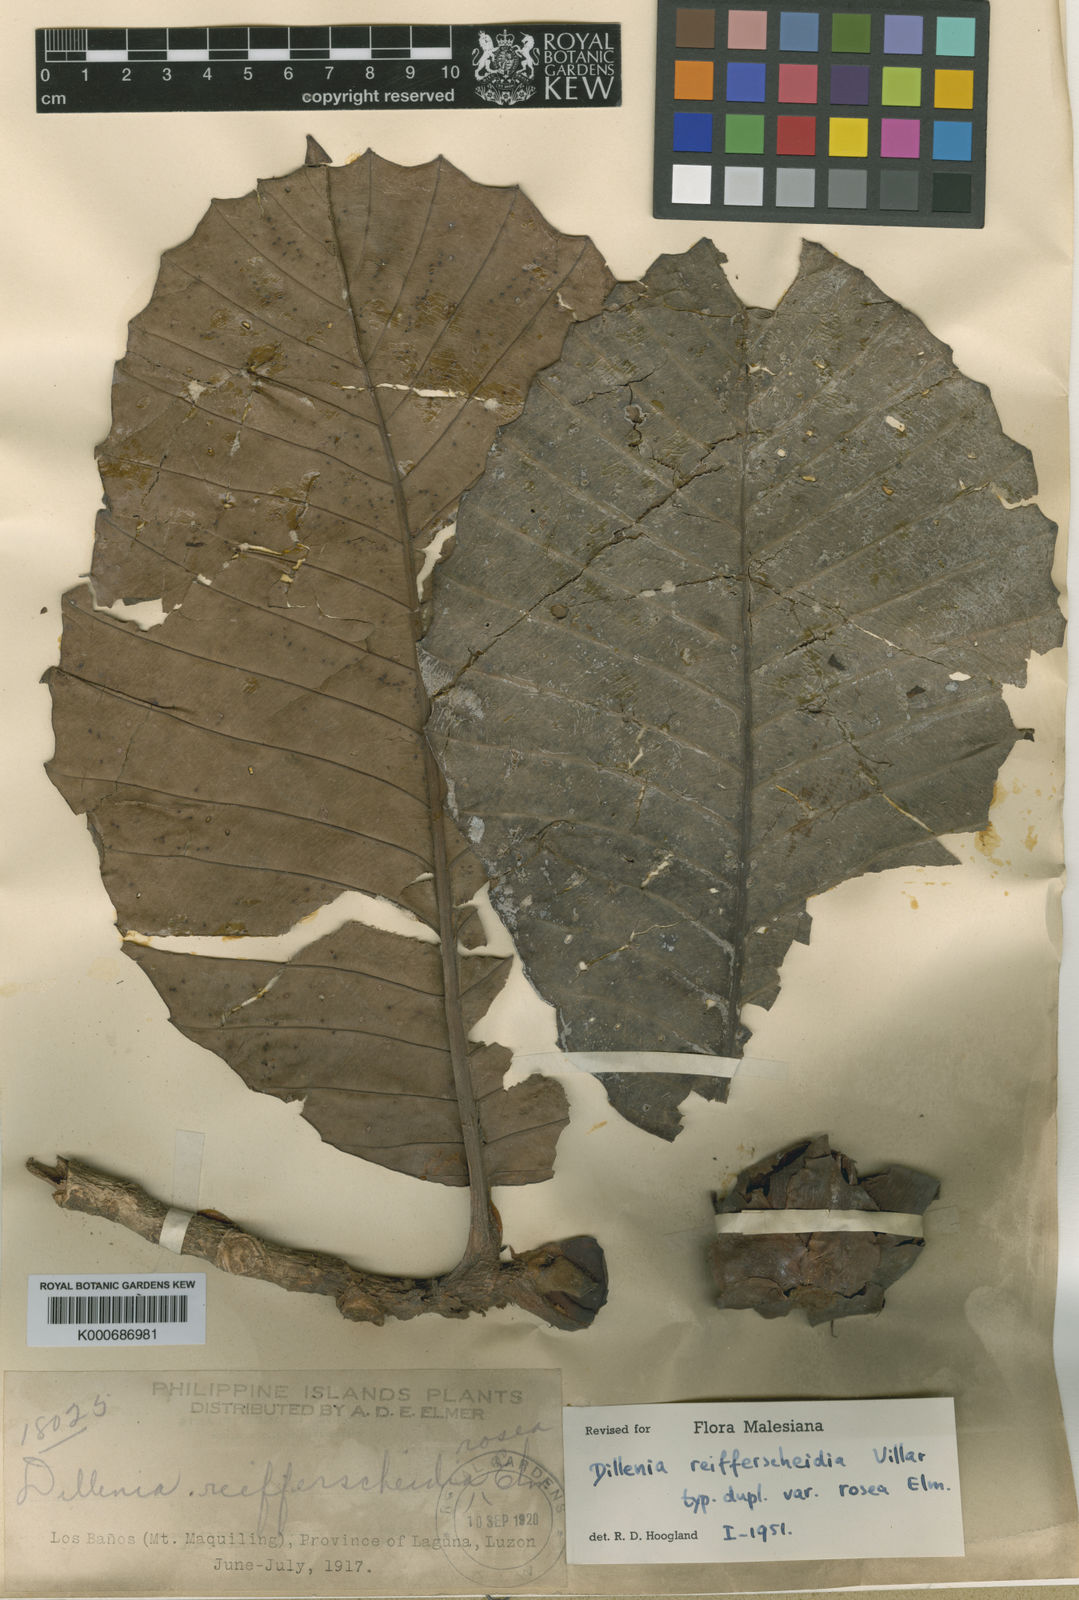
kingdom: Plantae
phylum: Tracheophyta
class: Magnoliopsida
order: Dilleniales
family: Dilleniaceae
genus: Dillenia
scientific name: Dillenia reifferscheidia
